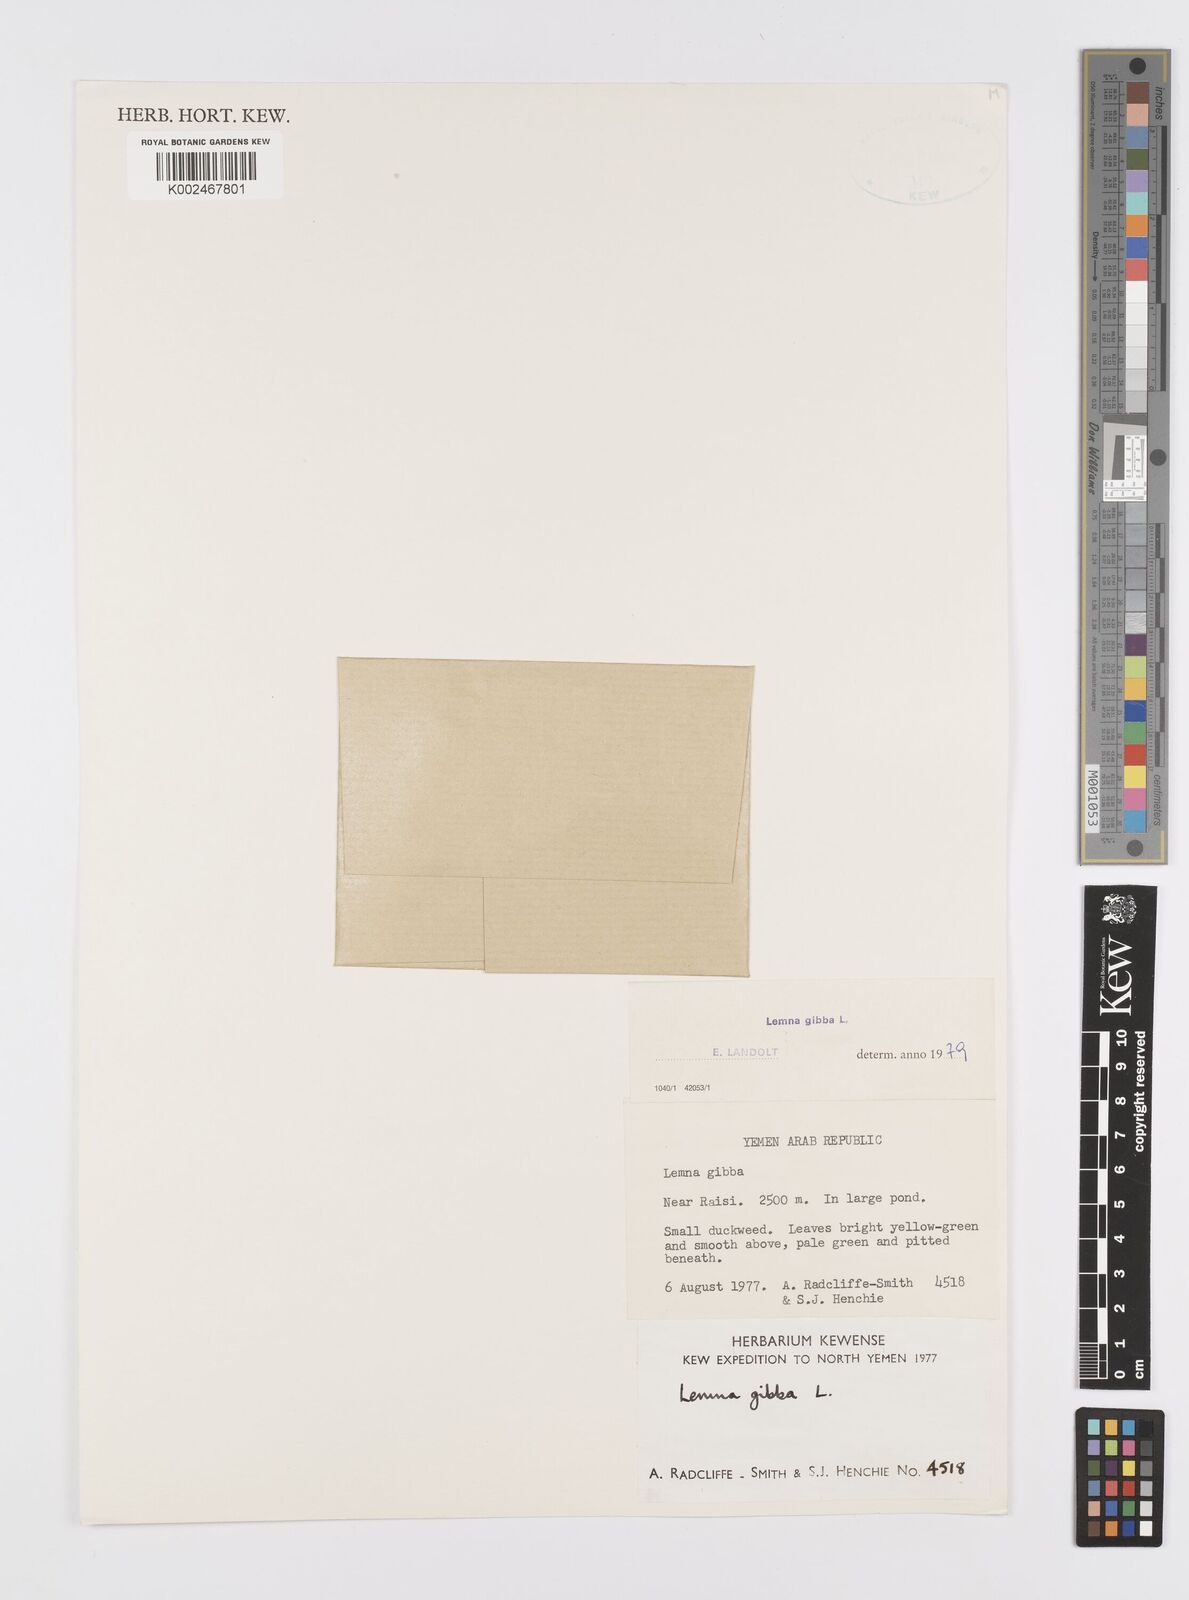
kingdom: Plantae
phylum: Tracheophyta
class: Liliopsida
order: Alismatales
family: Araceae
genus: Lemna
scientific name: Lemna gibba
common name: Fat duckweed
